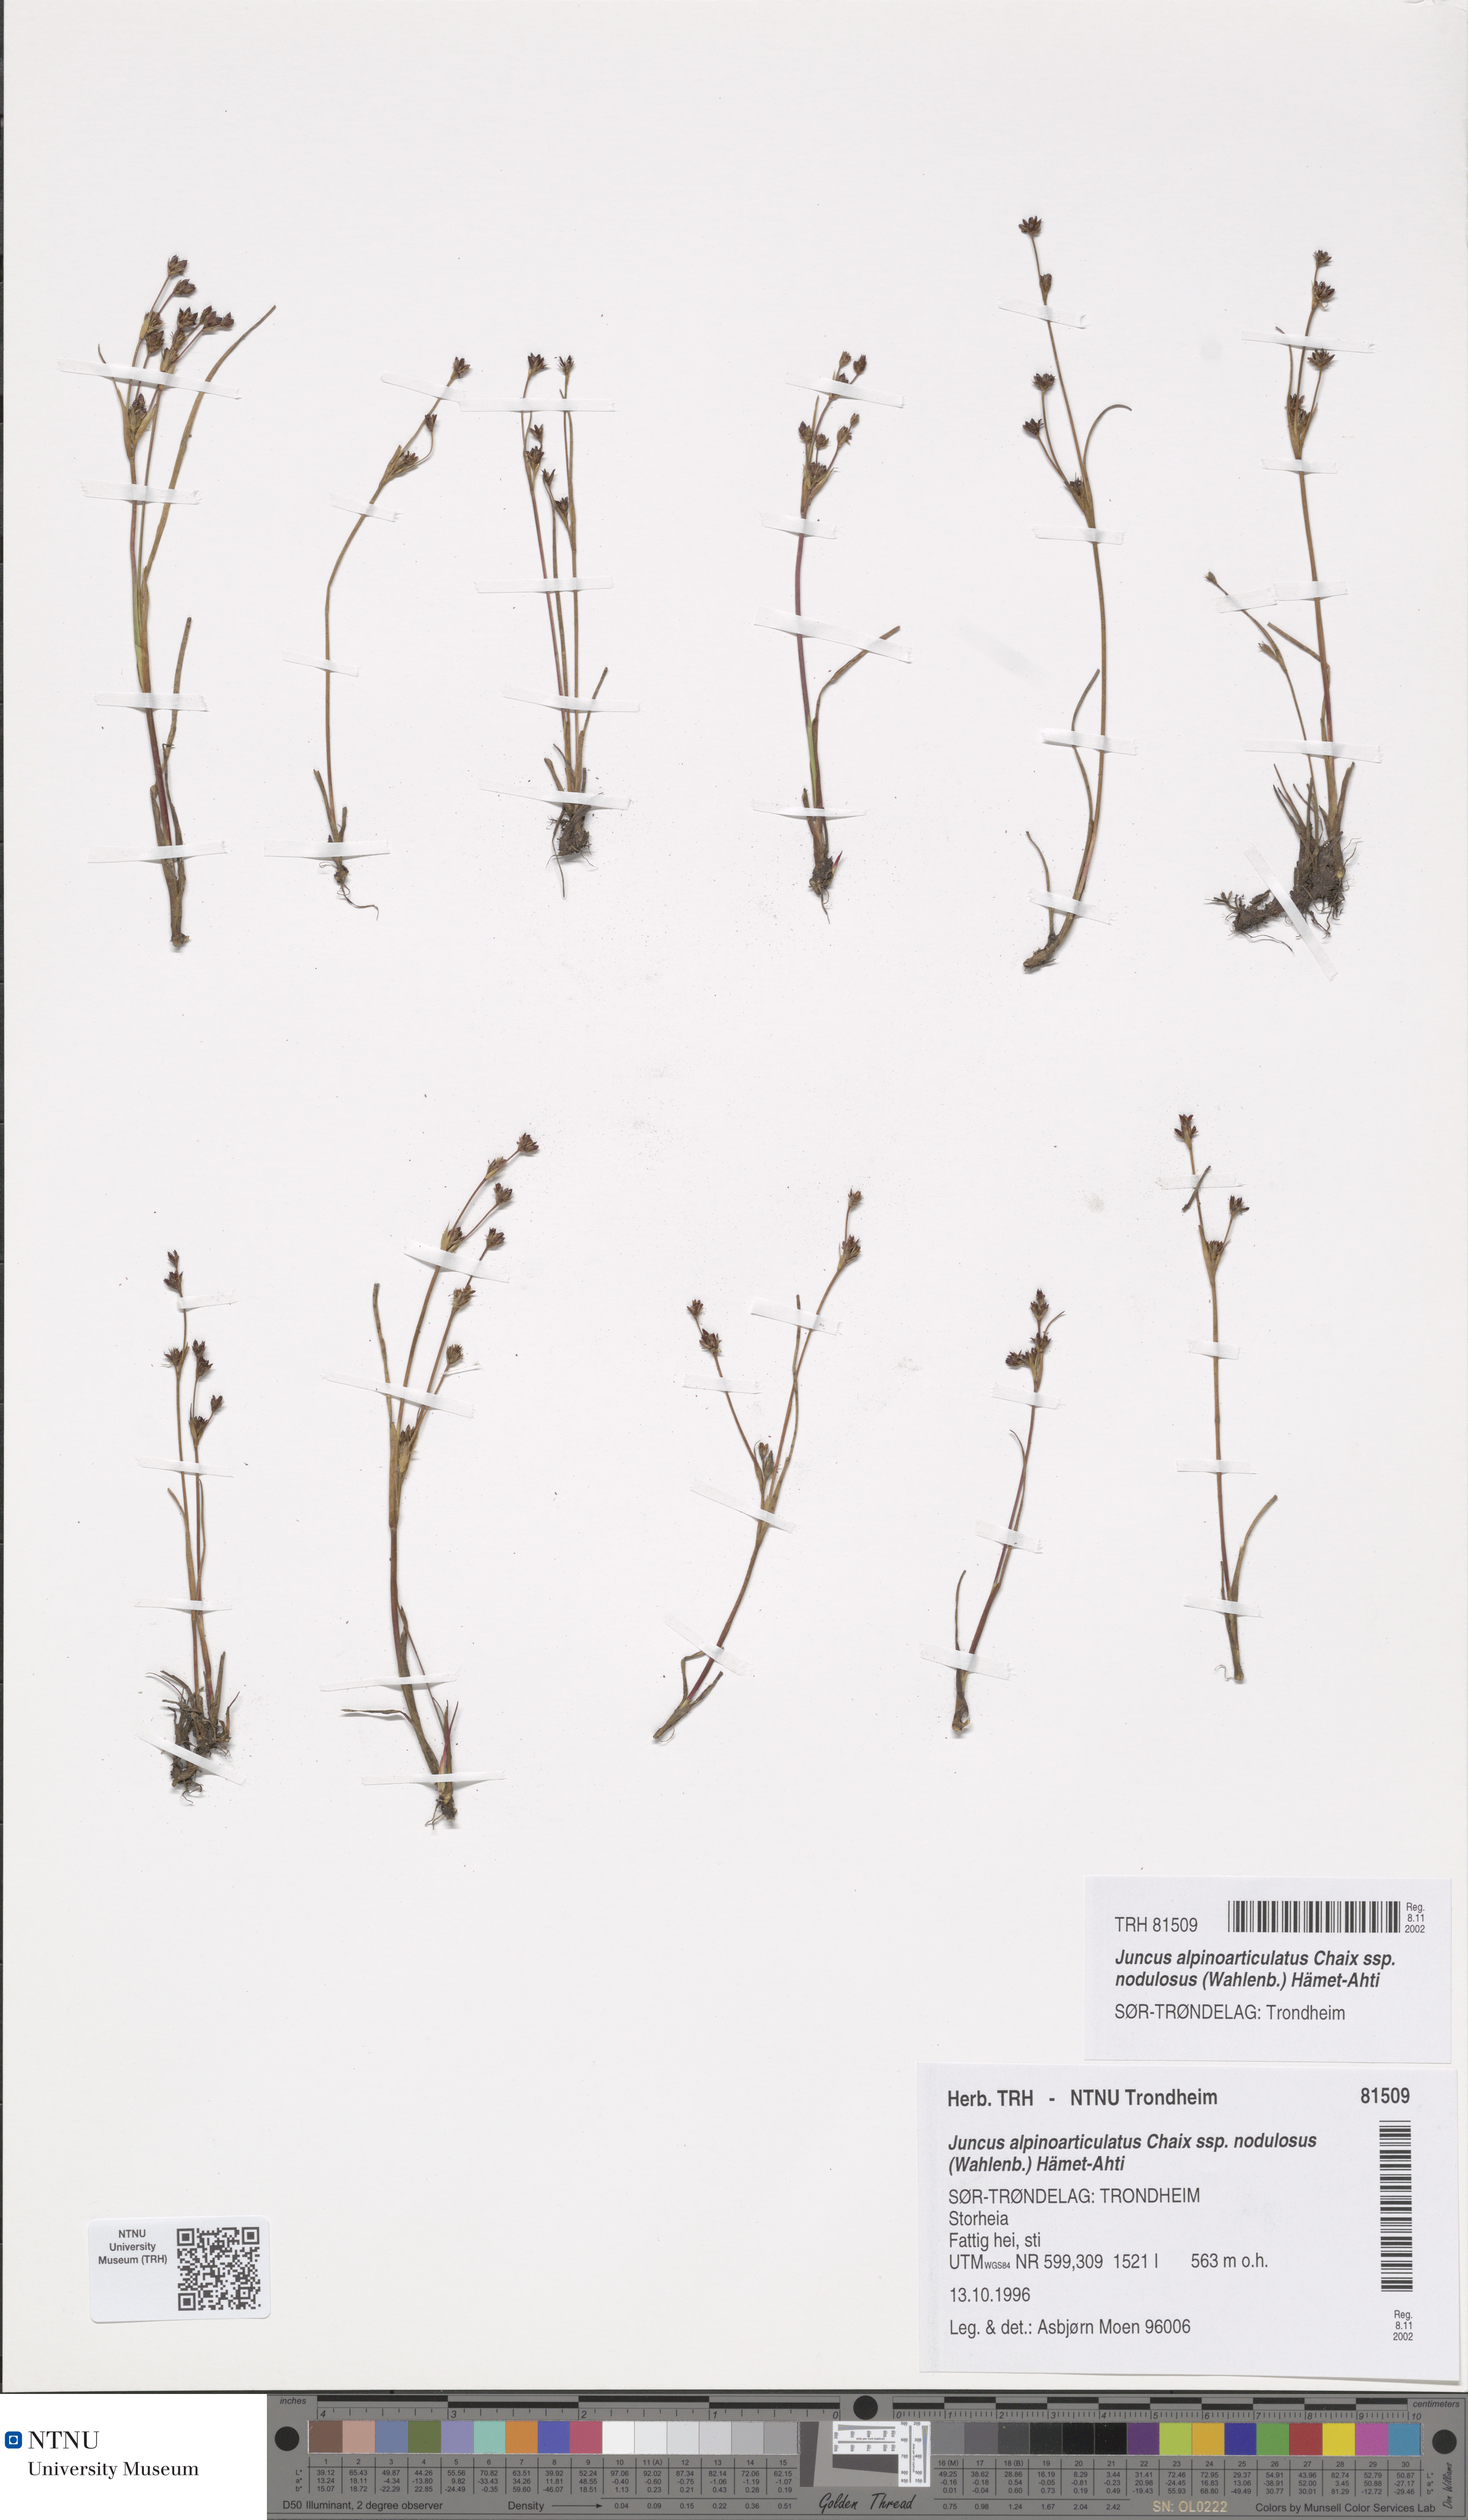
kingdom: Plantae
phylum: Tracheophyta
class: Liliopsida
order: Poales
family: Juncaceae
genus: Juncus
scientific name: Juncus alpinoarticulatus
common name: Alpine rush
